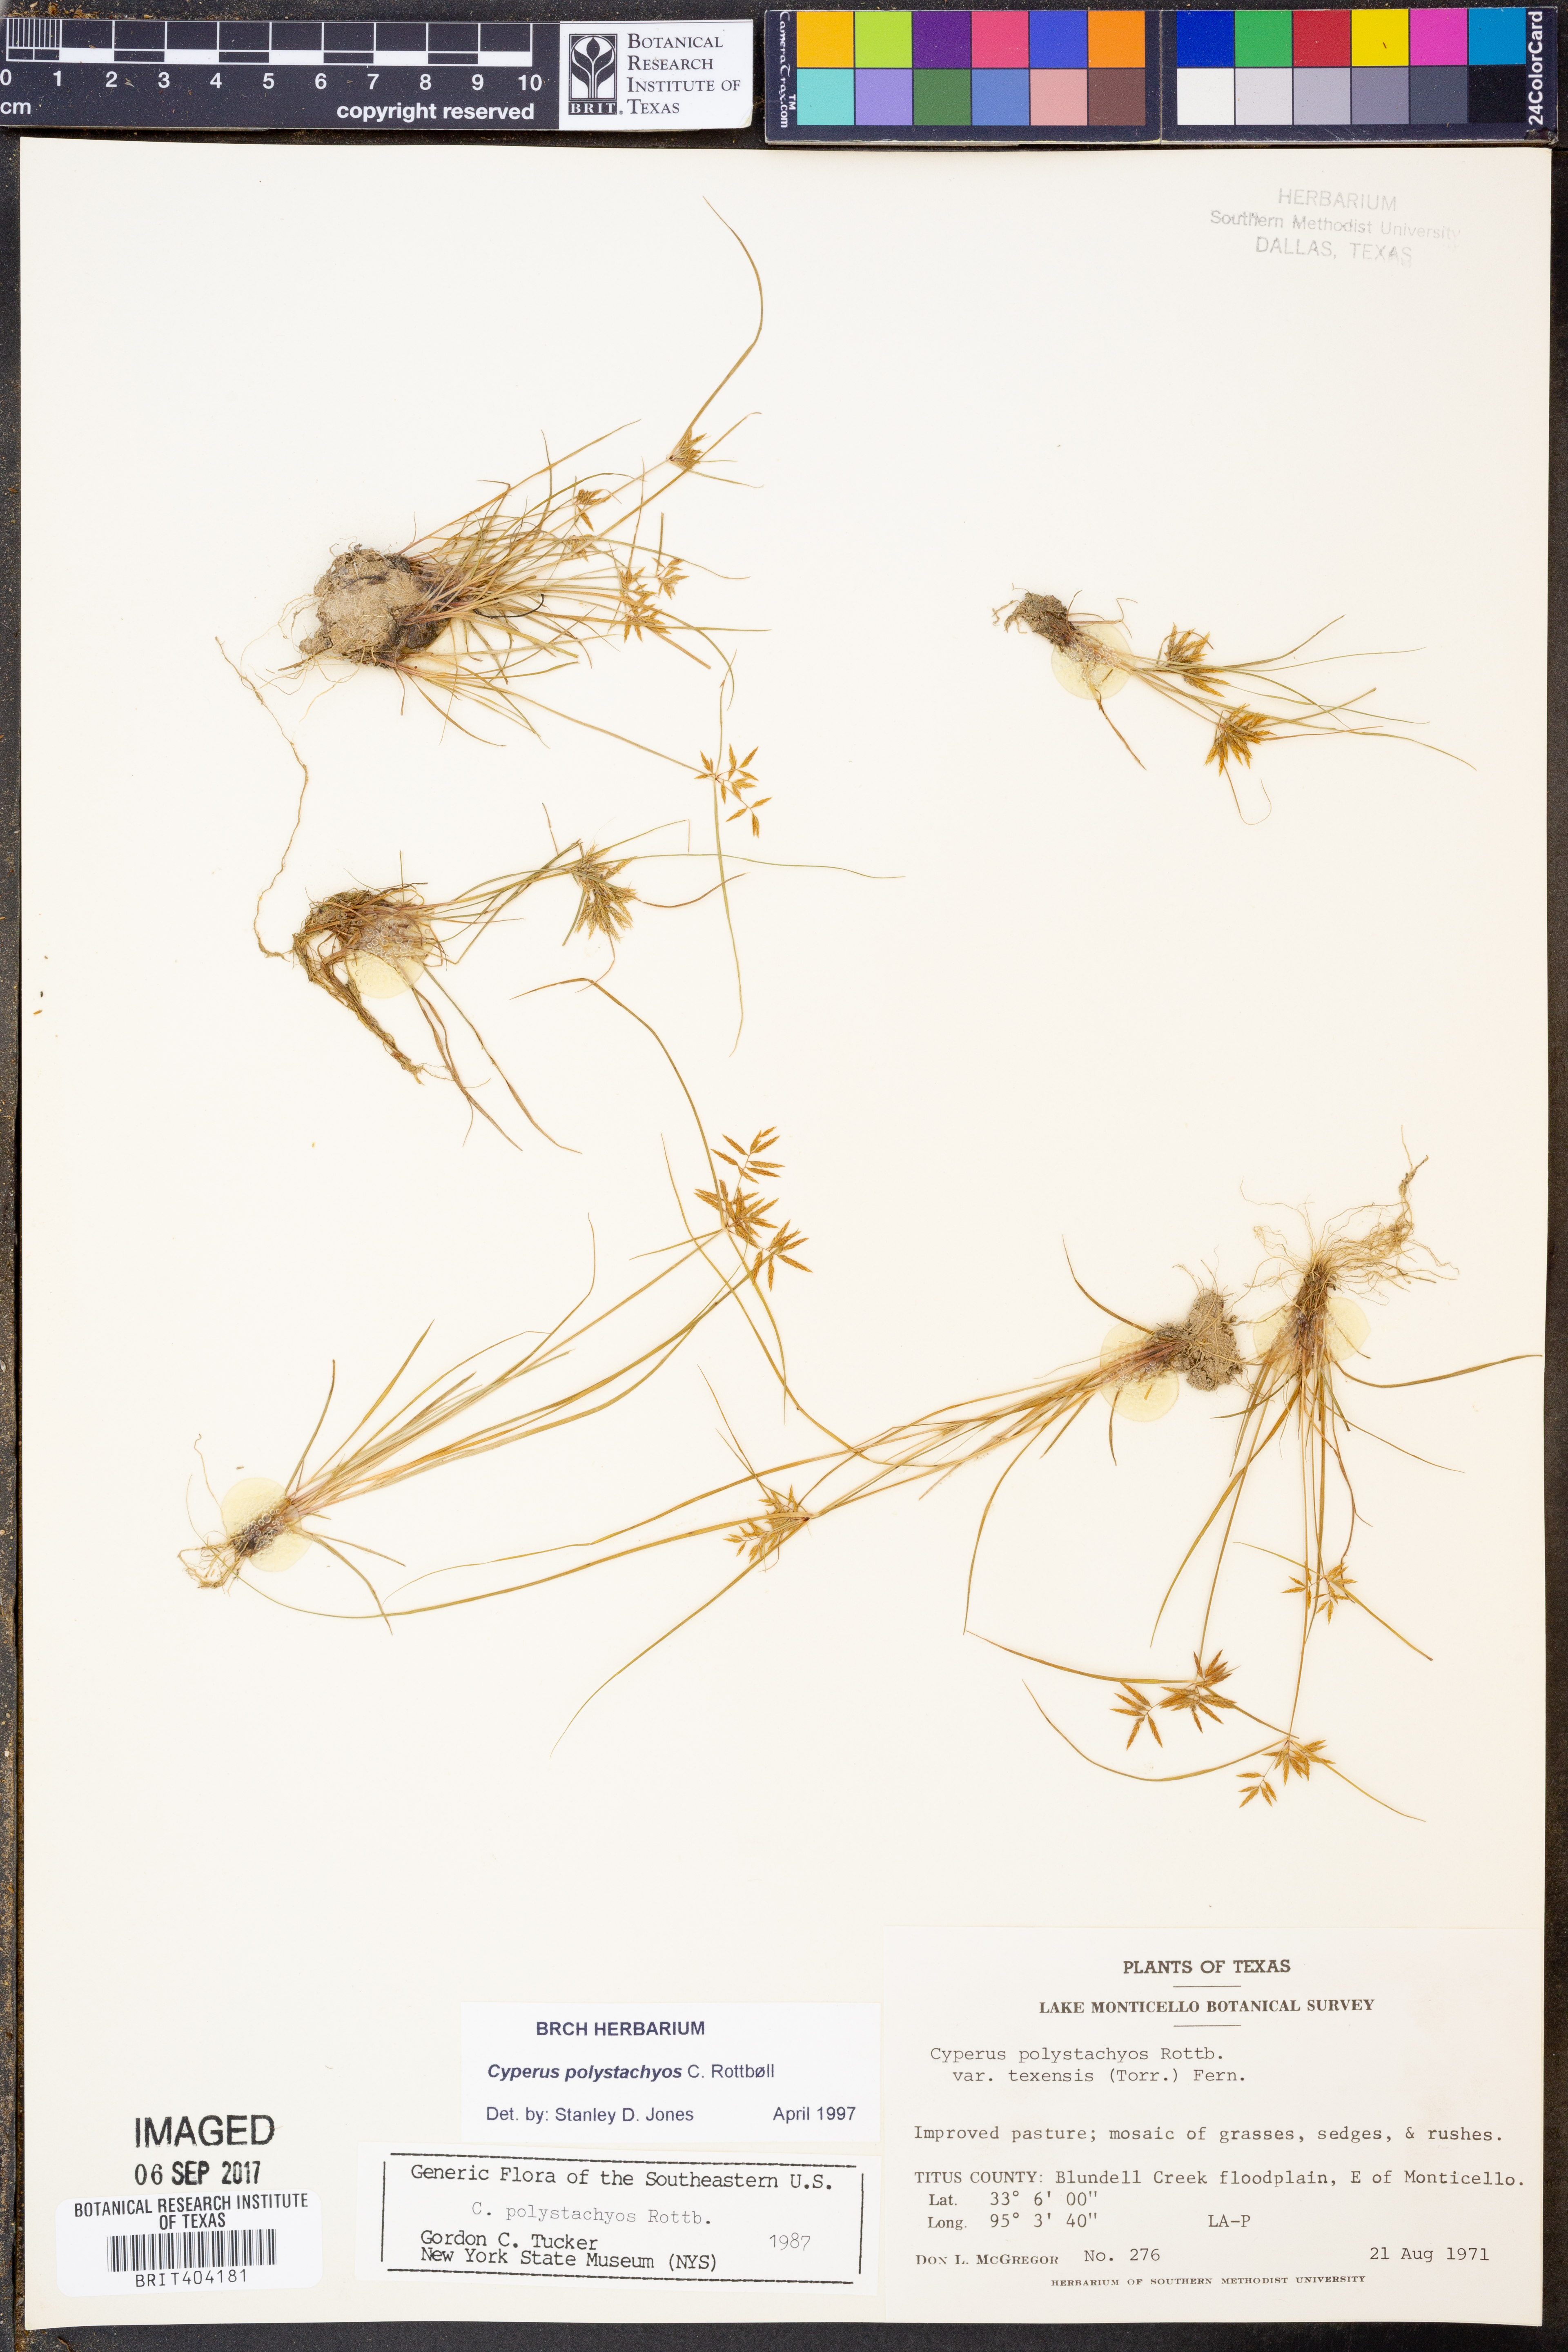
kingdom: Plantae
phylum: Tracheophyta
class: Liliopsida
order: Poales
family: Cyperaceae
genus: Cyperus
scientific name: Cyperus polystachyos
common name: Bunchy flat sedge
